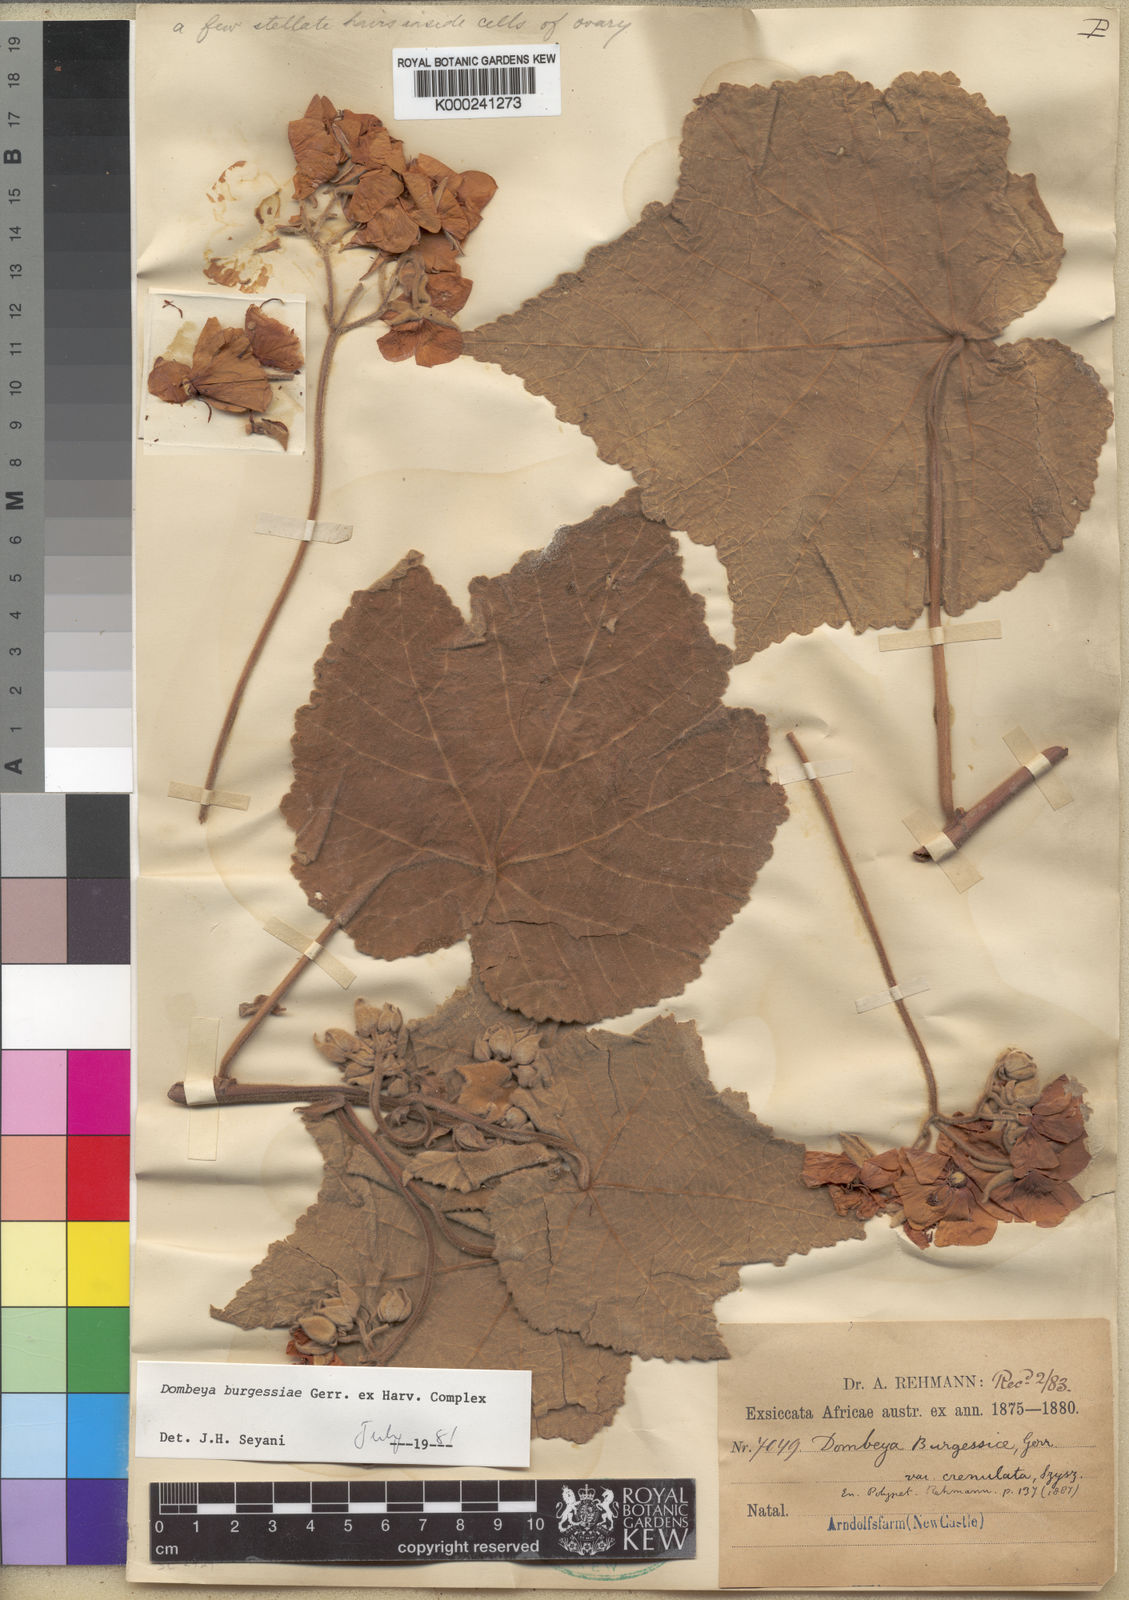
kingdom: Plantae
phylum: Tracheophyta
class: Magnoliopsida
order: Malvales
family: Malvaceae
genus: Dombeya
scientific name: Dombeya burgessiae
